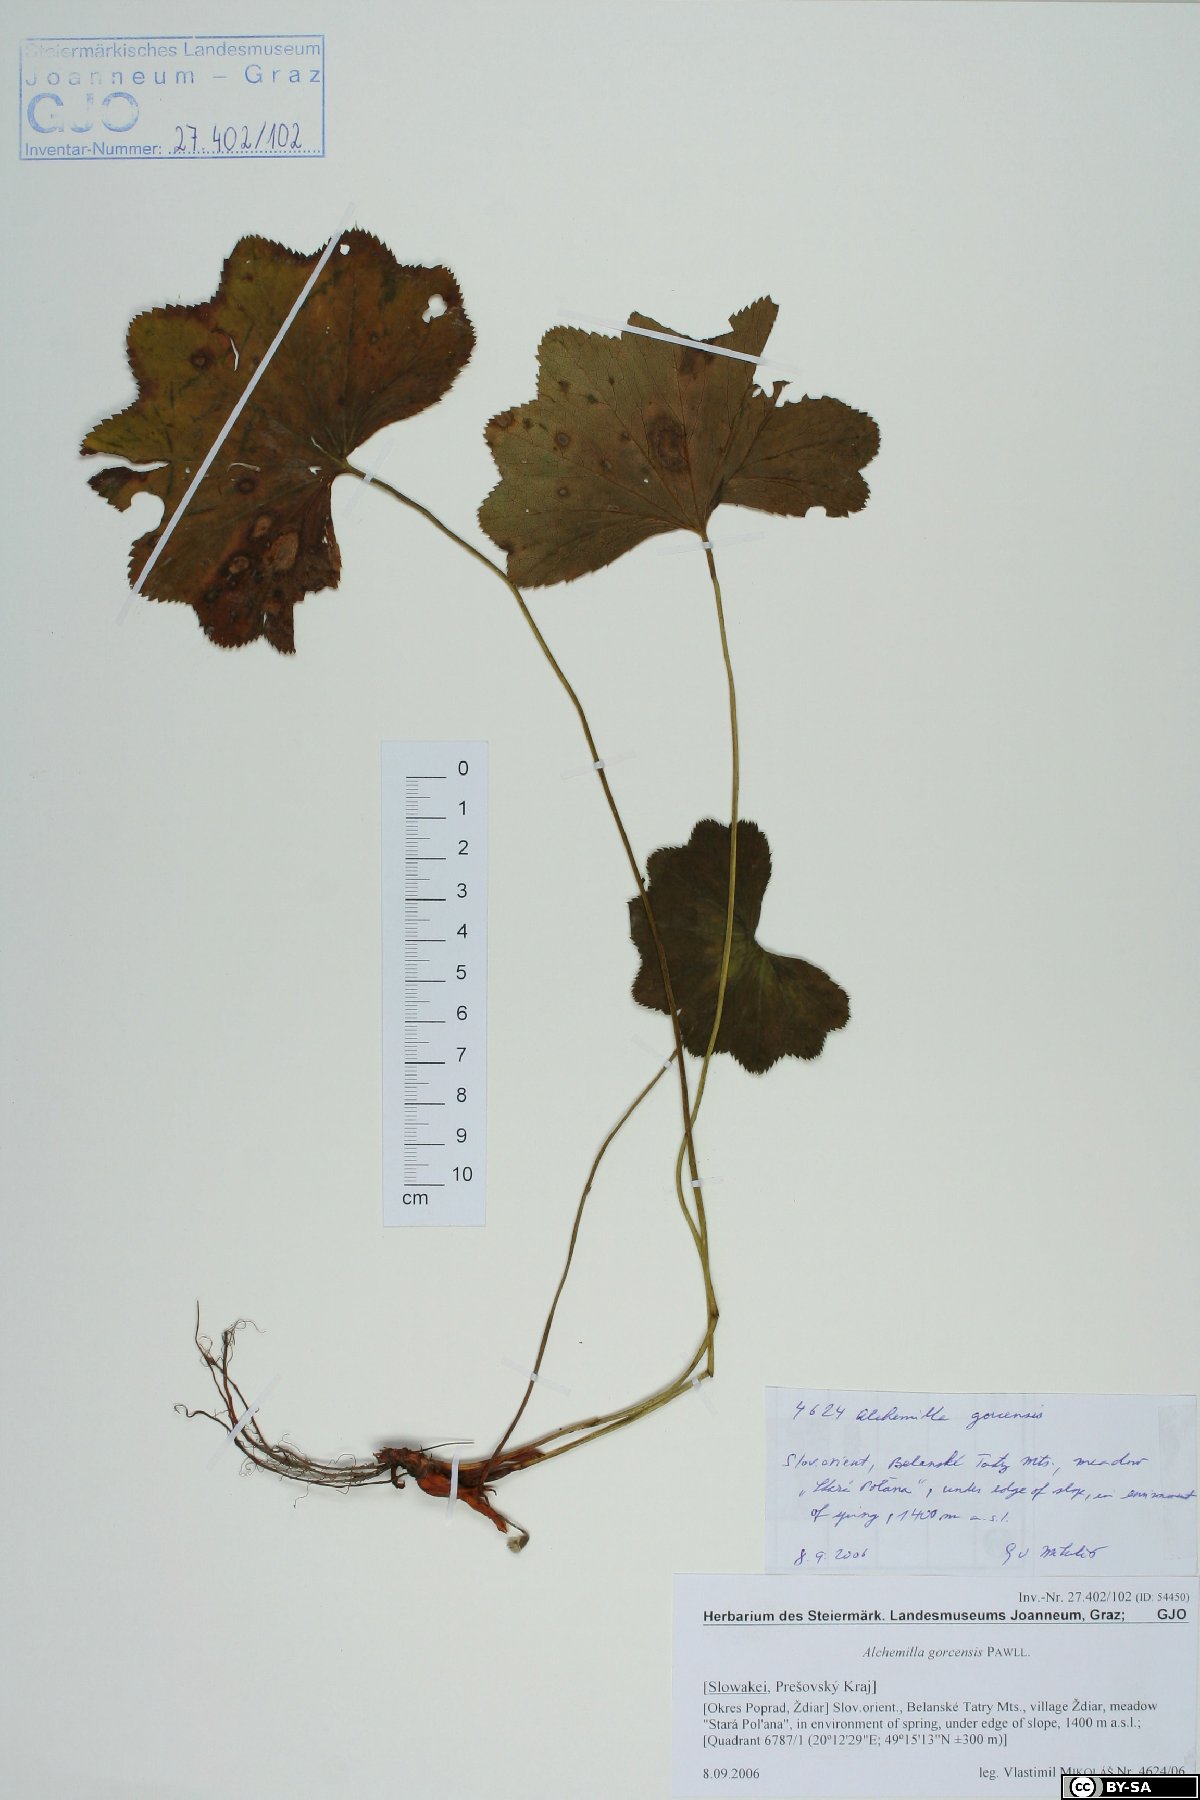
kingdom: Plantae
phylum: Tracheophyta
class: Magnoliopsida
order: Rosales
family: Rosaceae
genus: Alchemilla
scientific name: Alchemilla gorcensis
